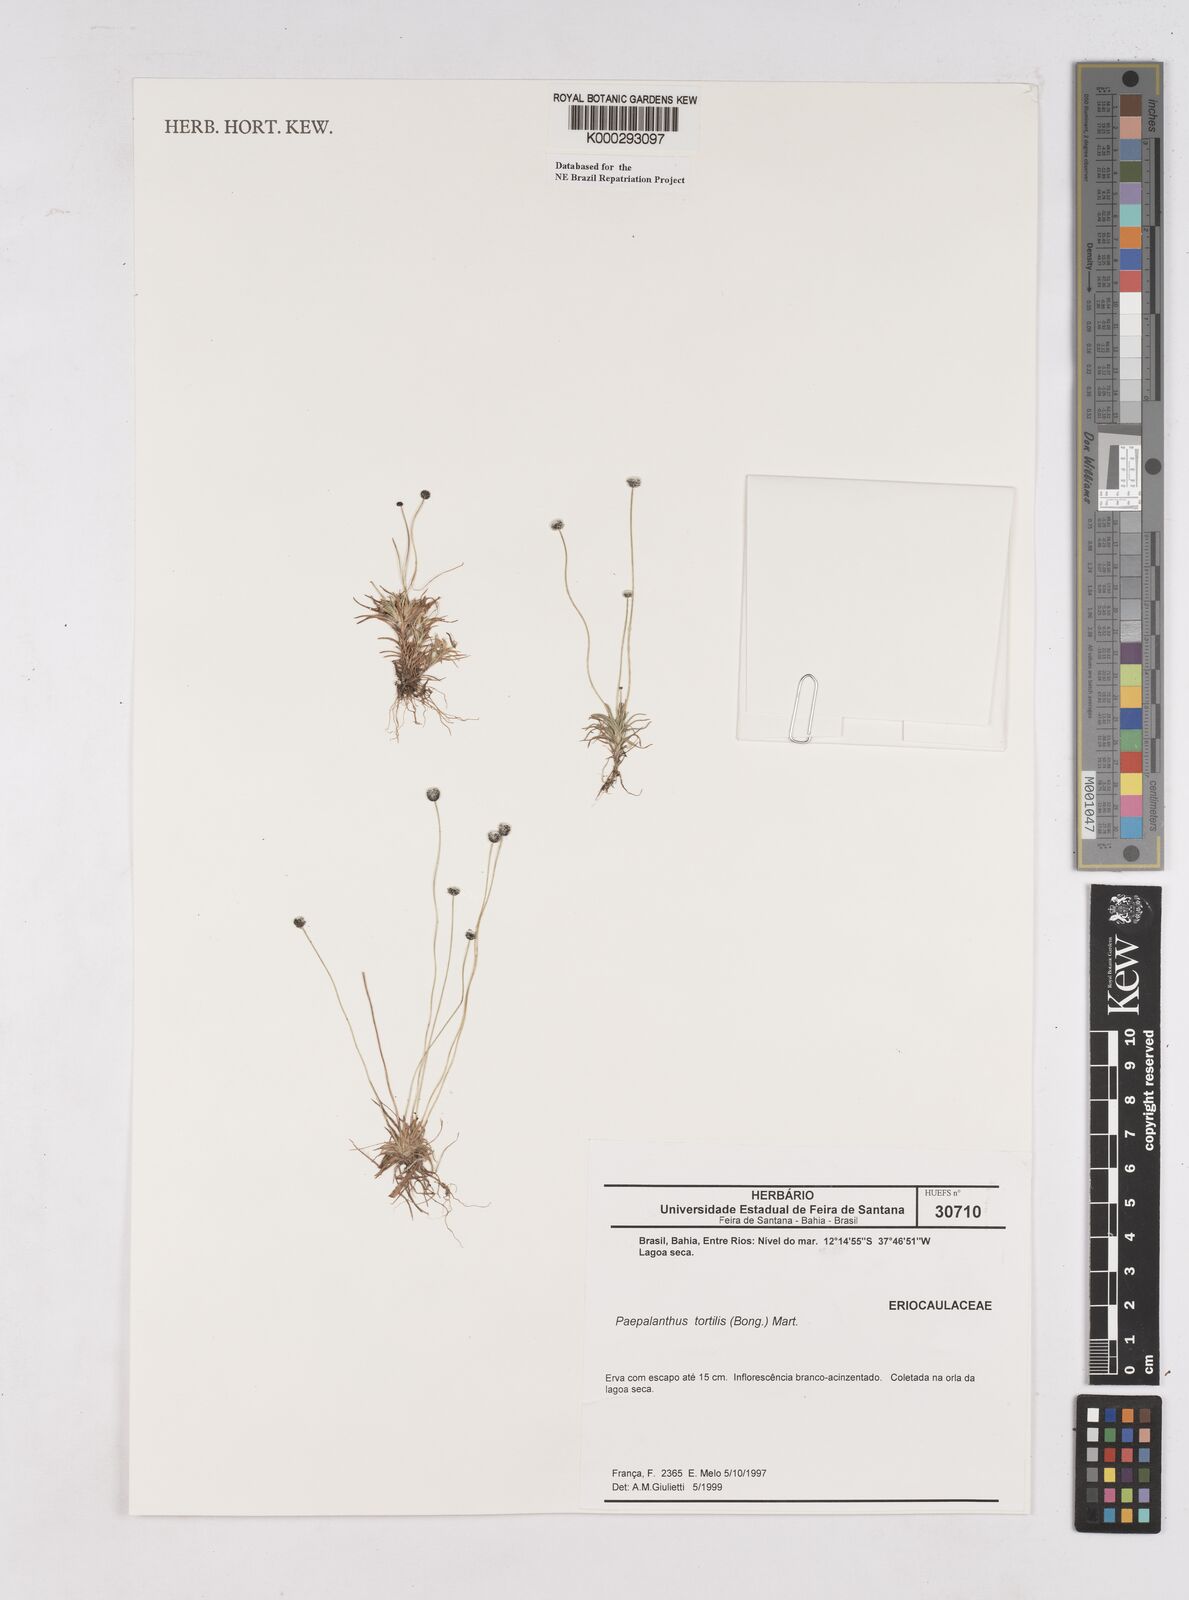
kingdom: Plantae
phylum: Tracheophyta
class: Liliopsida
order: Poales
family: Eriocaulaceae
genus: Paepalanthus
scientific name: Paepalanthus
